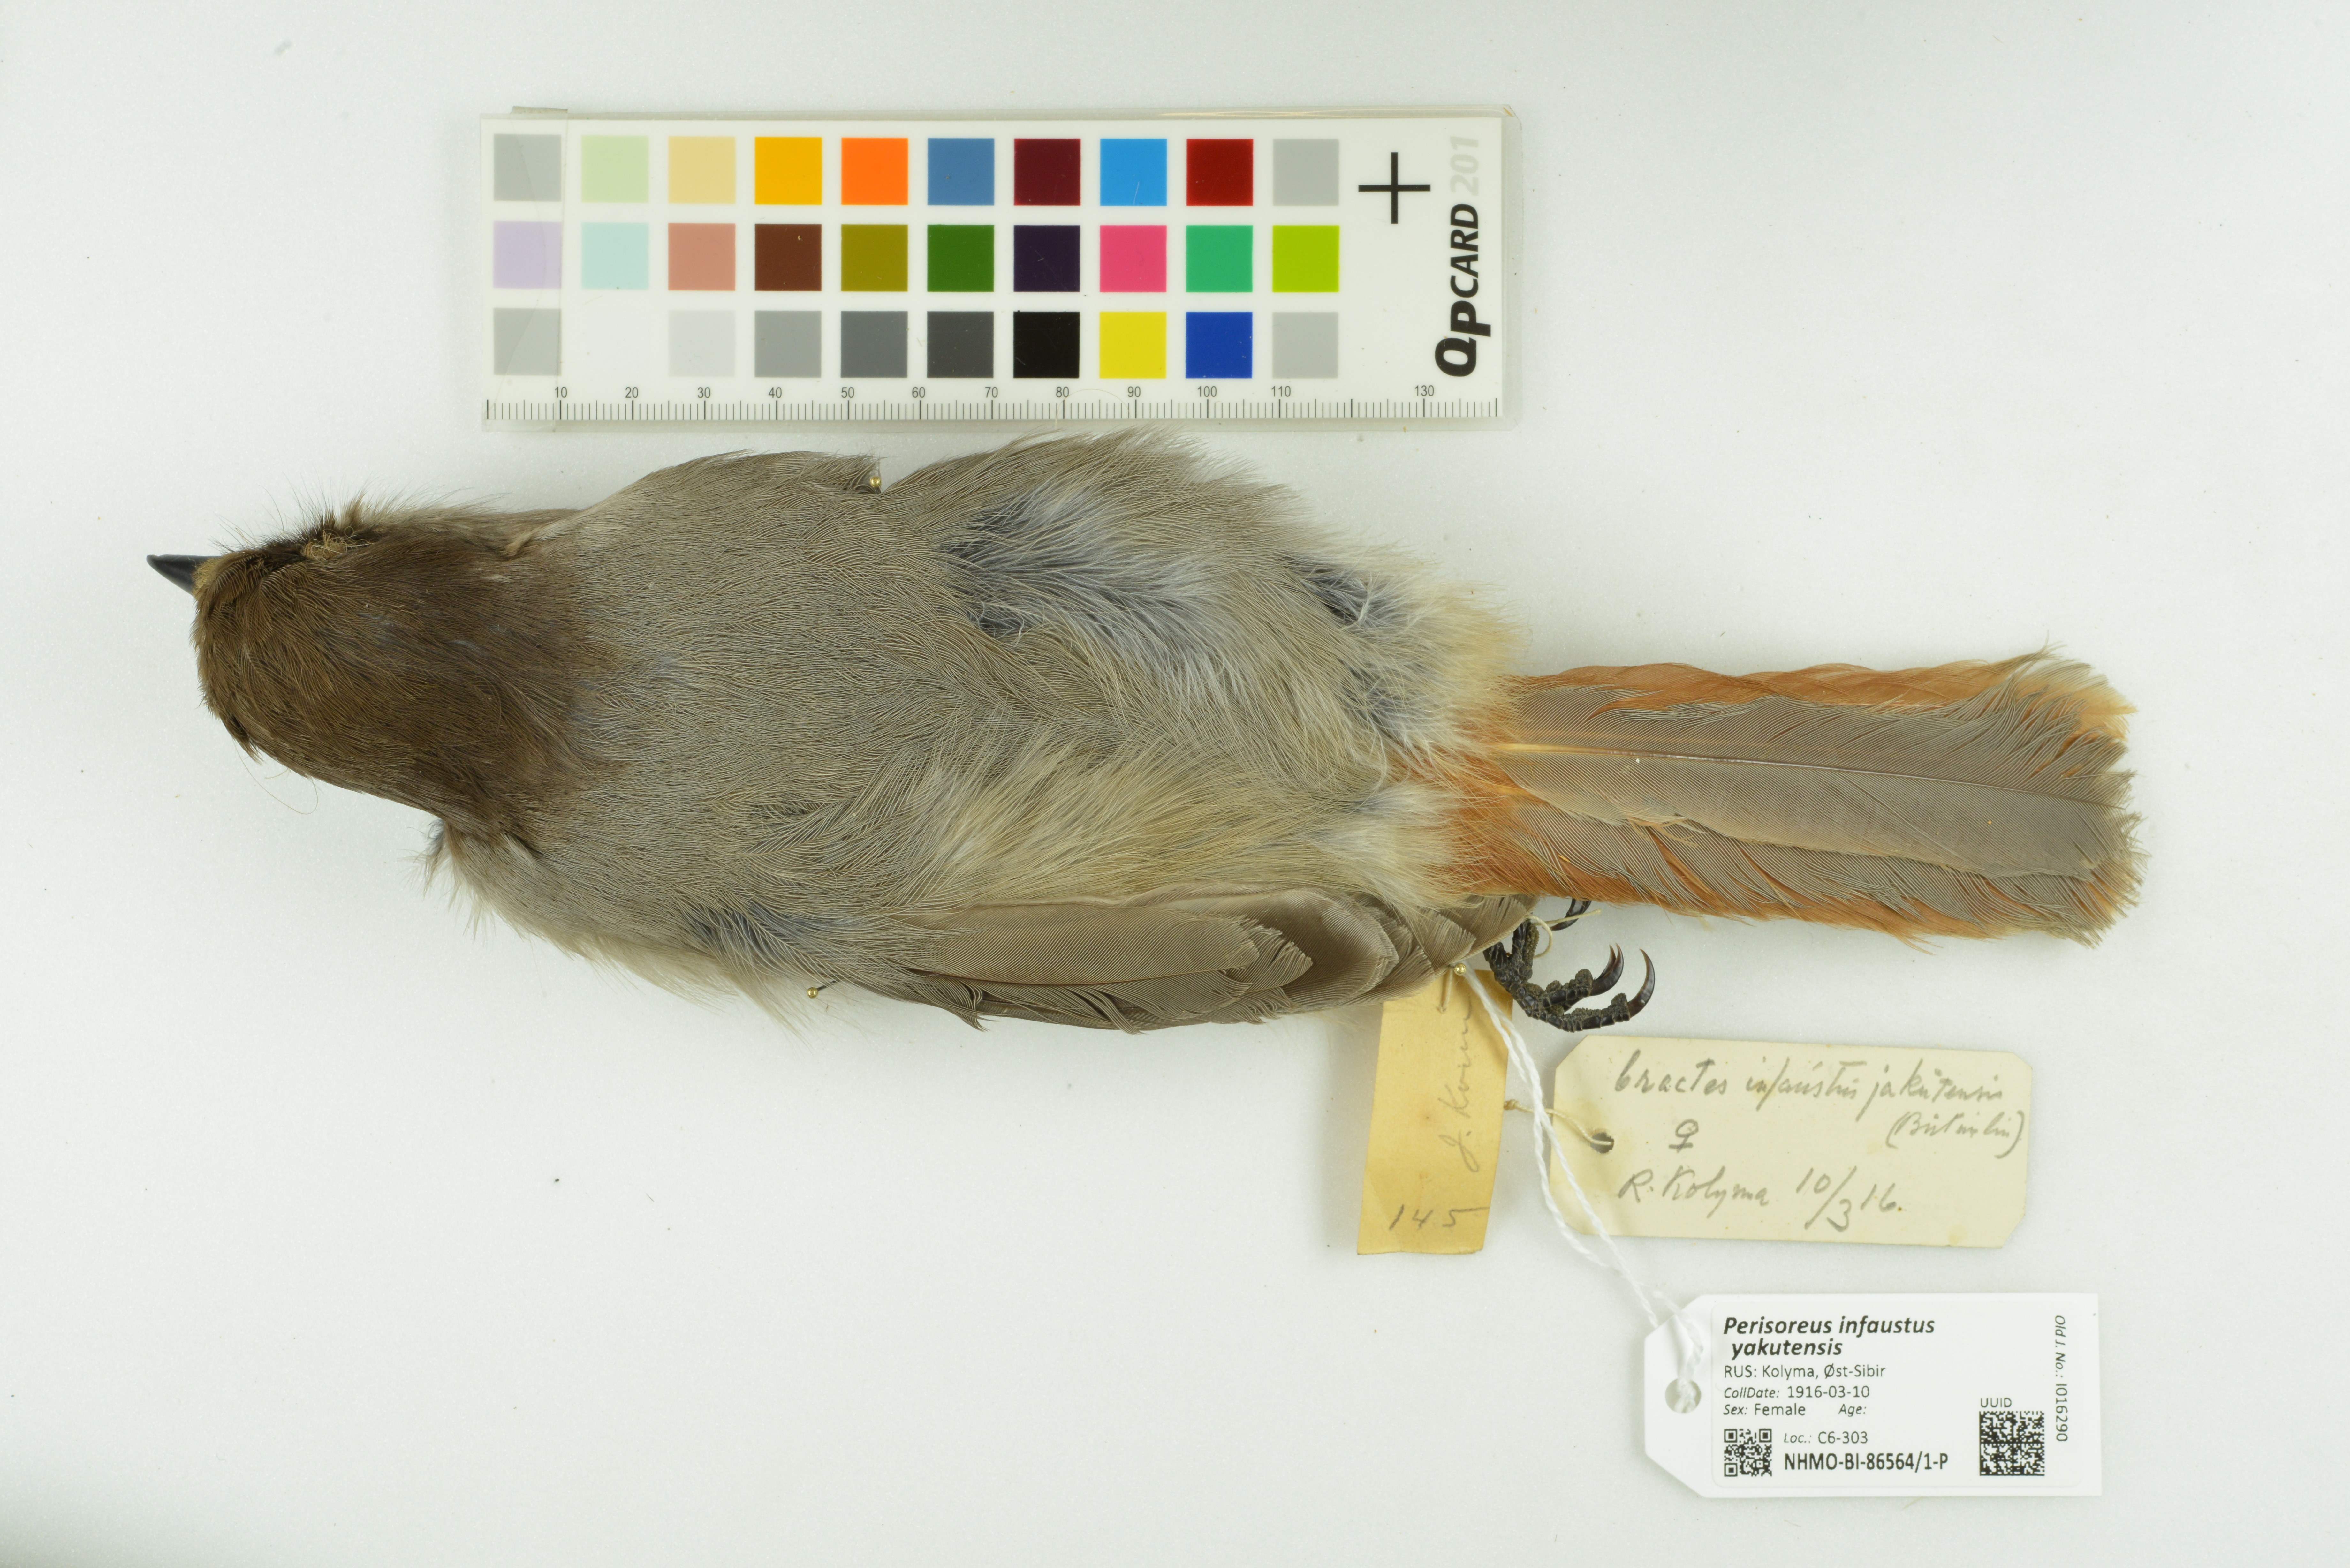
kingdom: Animalia
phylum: Chordata
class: Aves
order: Passeriformes
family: Corvidae
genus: Perisoreus
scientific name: Perisoreus infaustus
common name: Siberian jay
